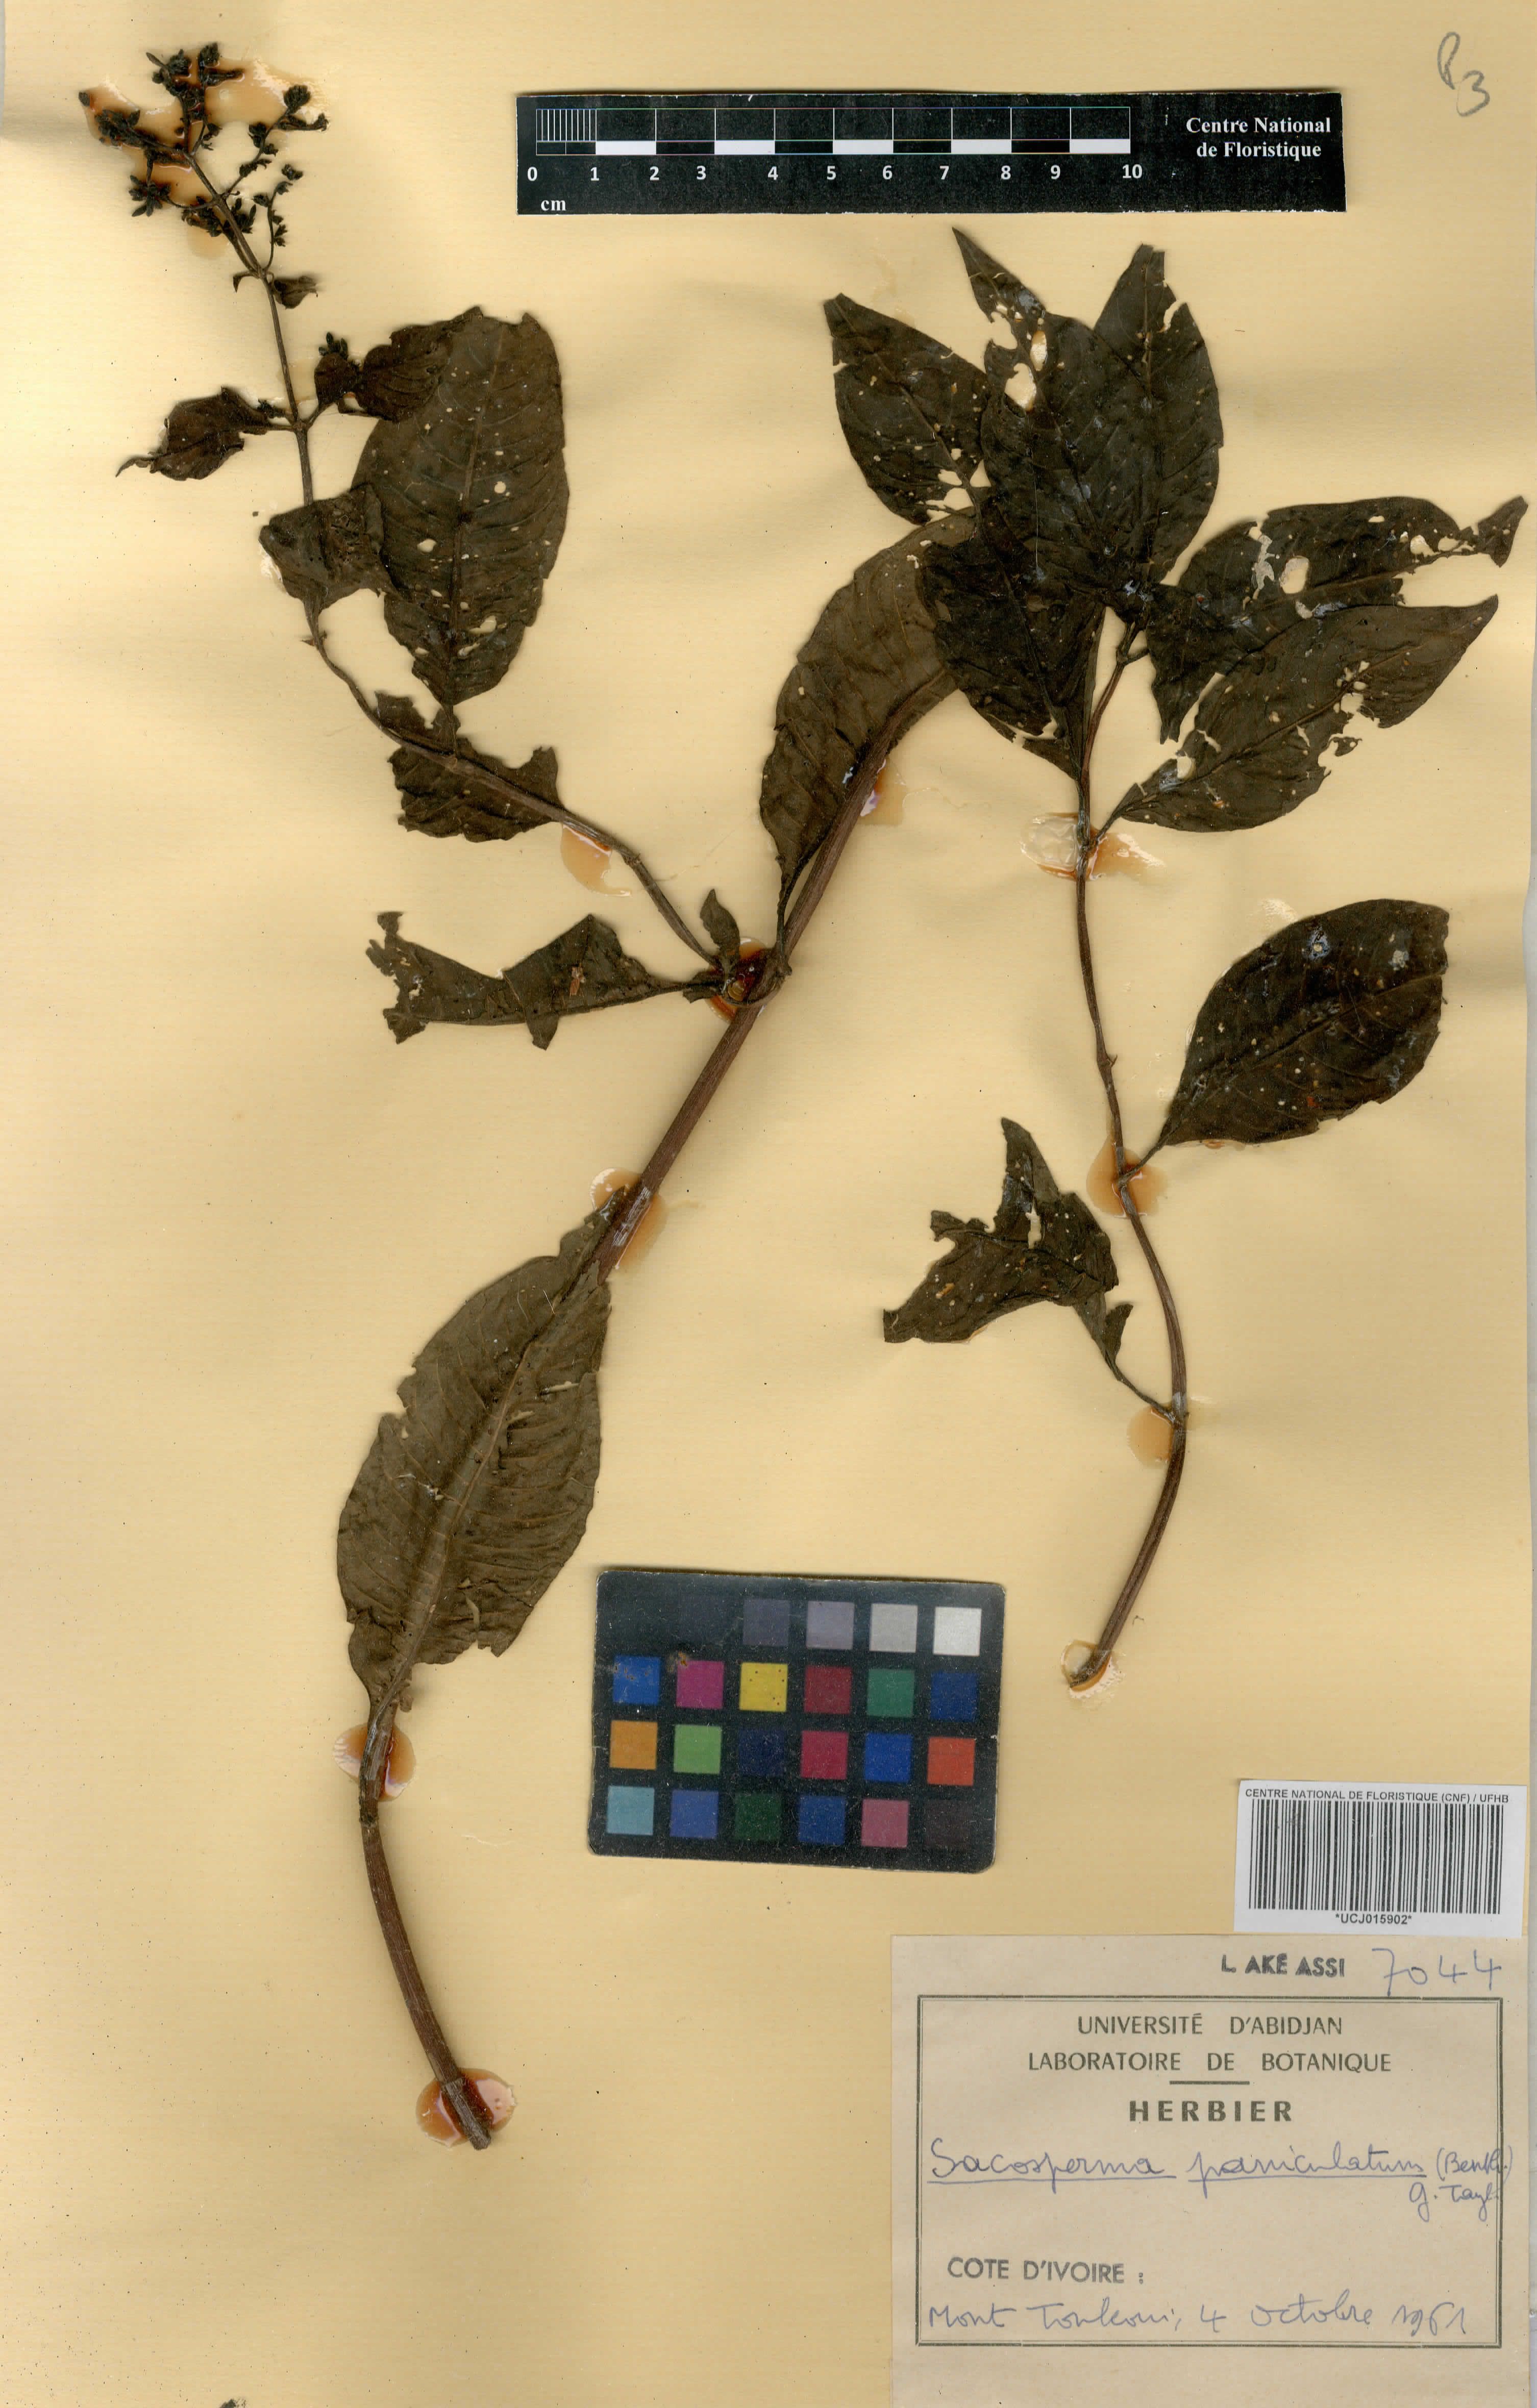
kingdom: Plantae
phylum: Tracheophyta
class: Magnoliopsida
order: Gentianales
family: Rubiaceae
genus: Sacosperma
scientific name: Sacosperma paniculatum
